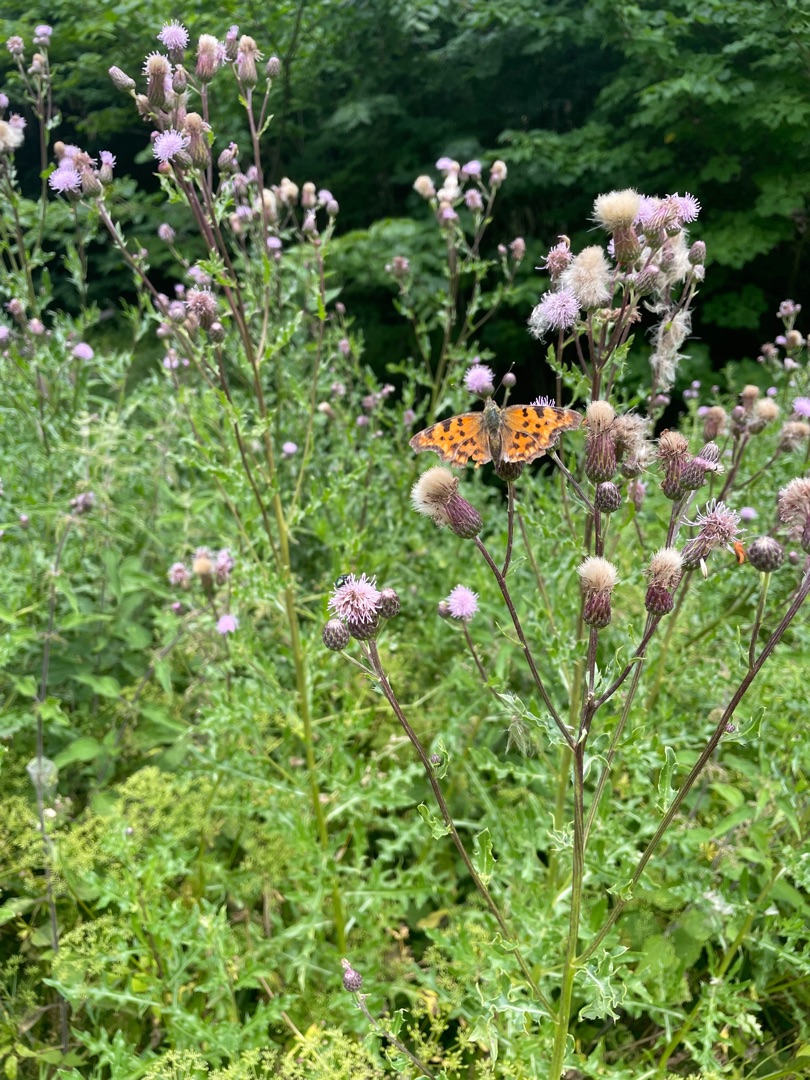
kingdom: Animalia
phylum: Arthropoda
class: Insecta
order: Lepidoptera
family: Nymphalidae
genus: Polygonia
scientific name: Polygonia c-album
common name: Det hvide C
